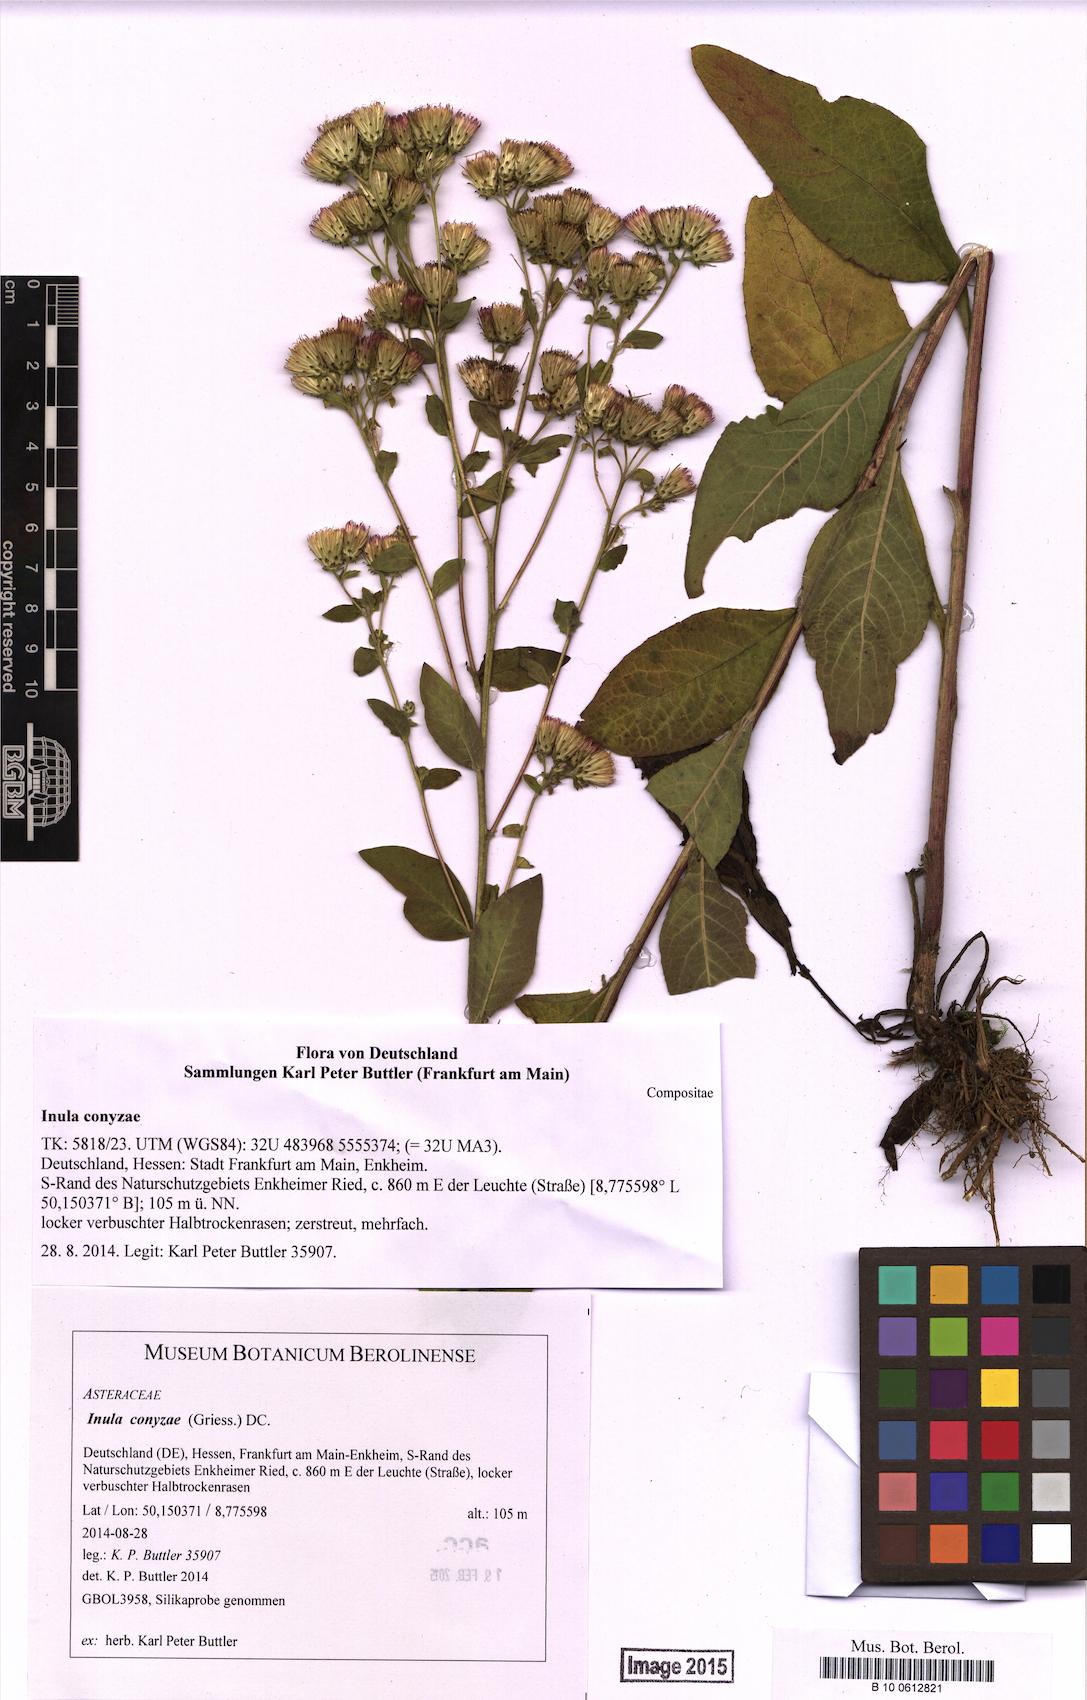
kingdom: Plantae
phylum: Tracheophyta
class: Magnoliopsida
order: Asterales
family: Asteraceae
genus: Pentanema
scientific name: Pentanema squarrosum
